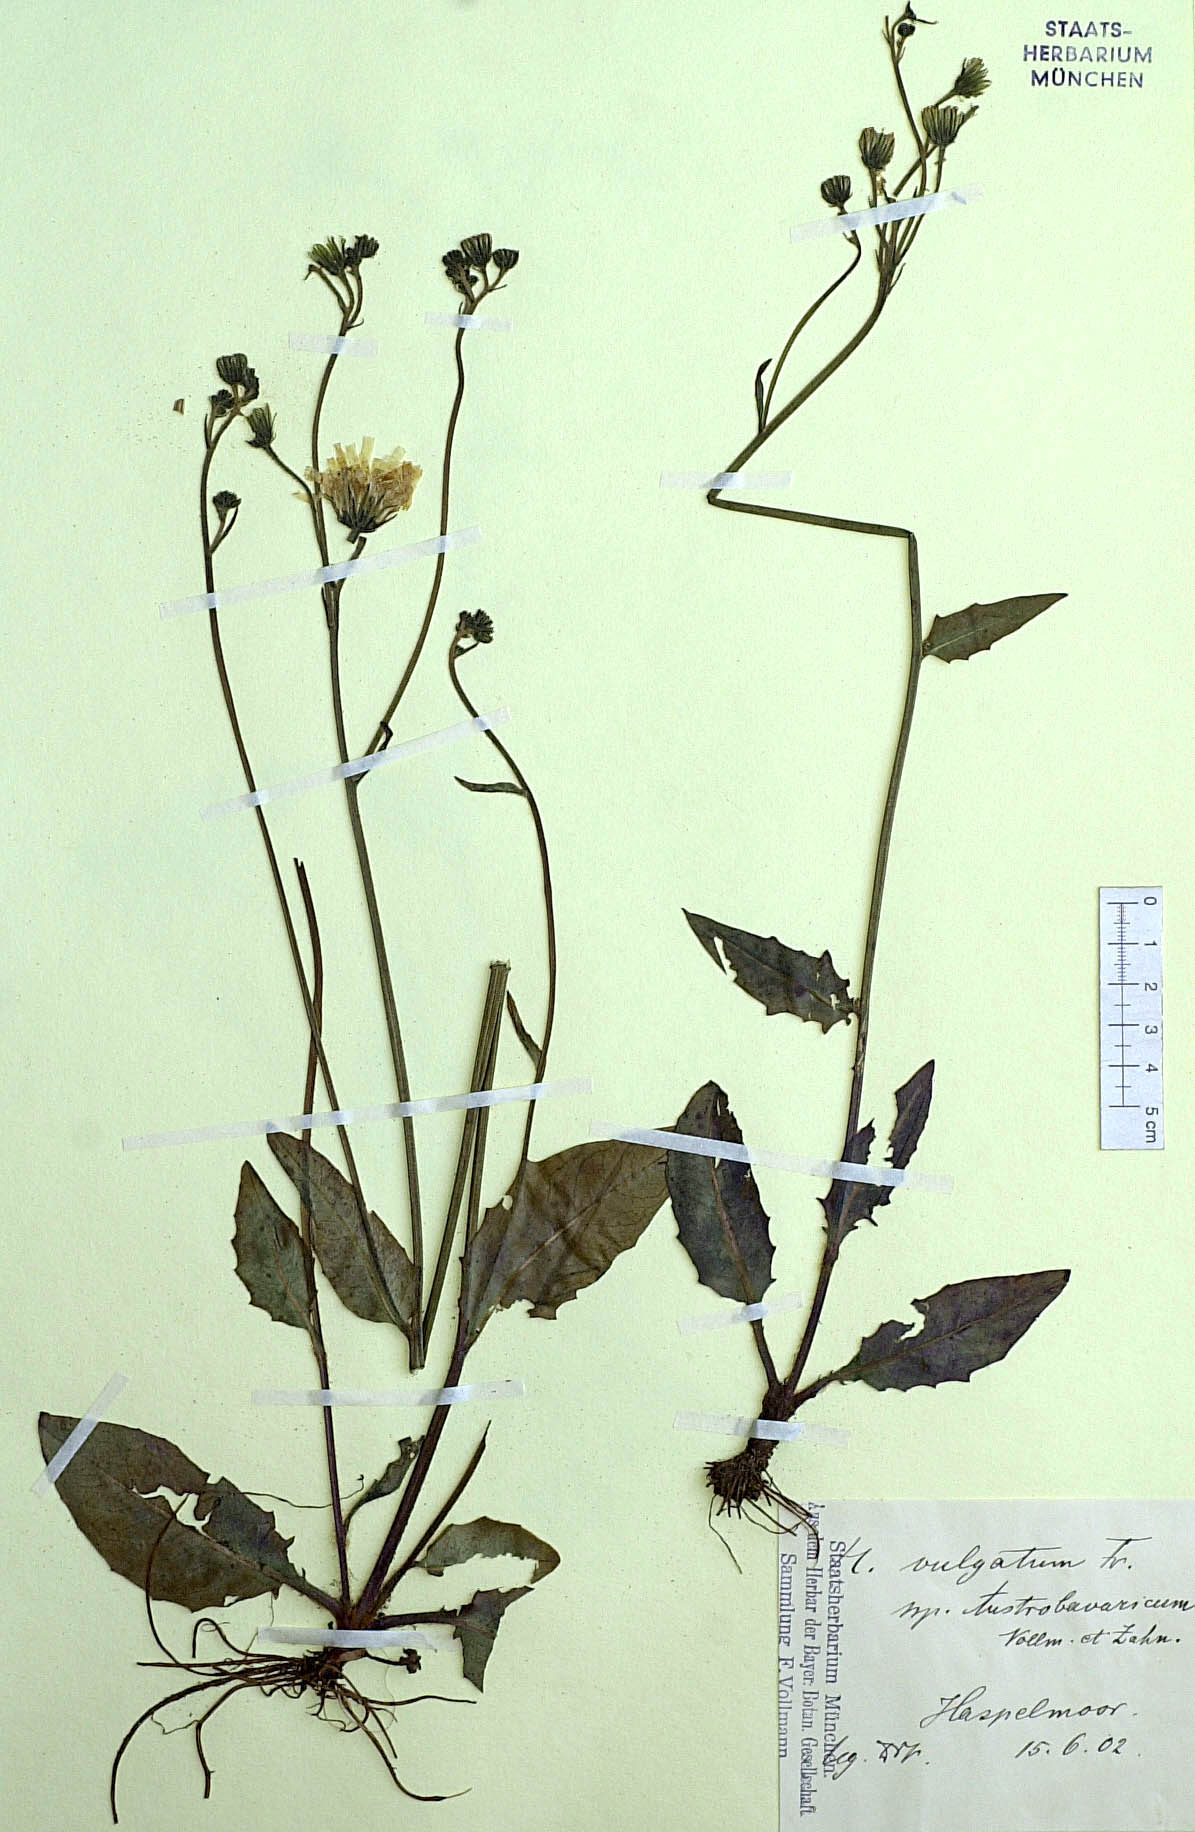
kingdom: Plantae
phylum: Tracheophyta
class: Magnoliopsida
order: Asterales
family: Asteraceae
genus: Hieracium
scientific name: Hieracium lachenalii
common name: Common hawkweed
